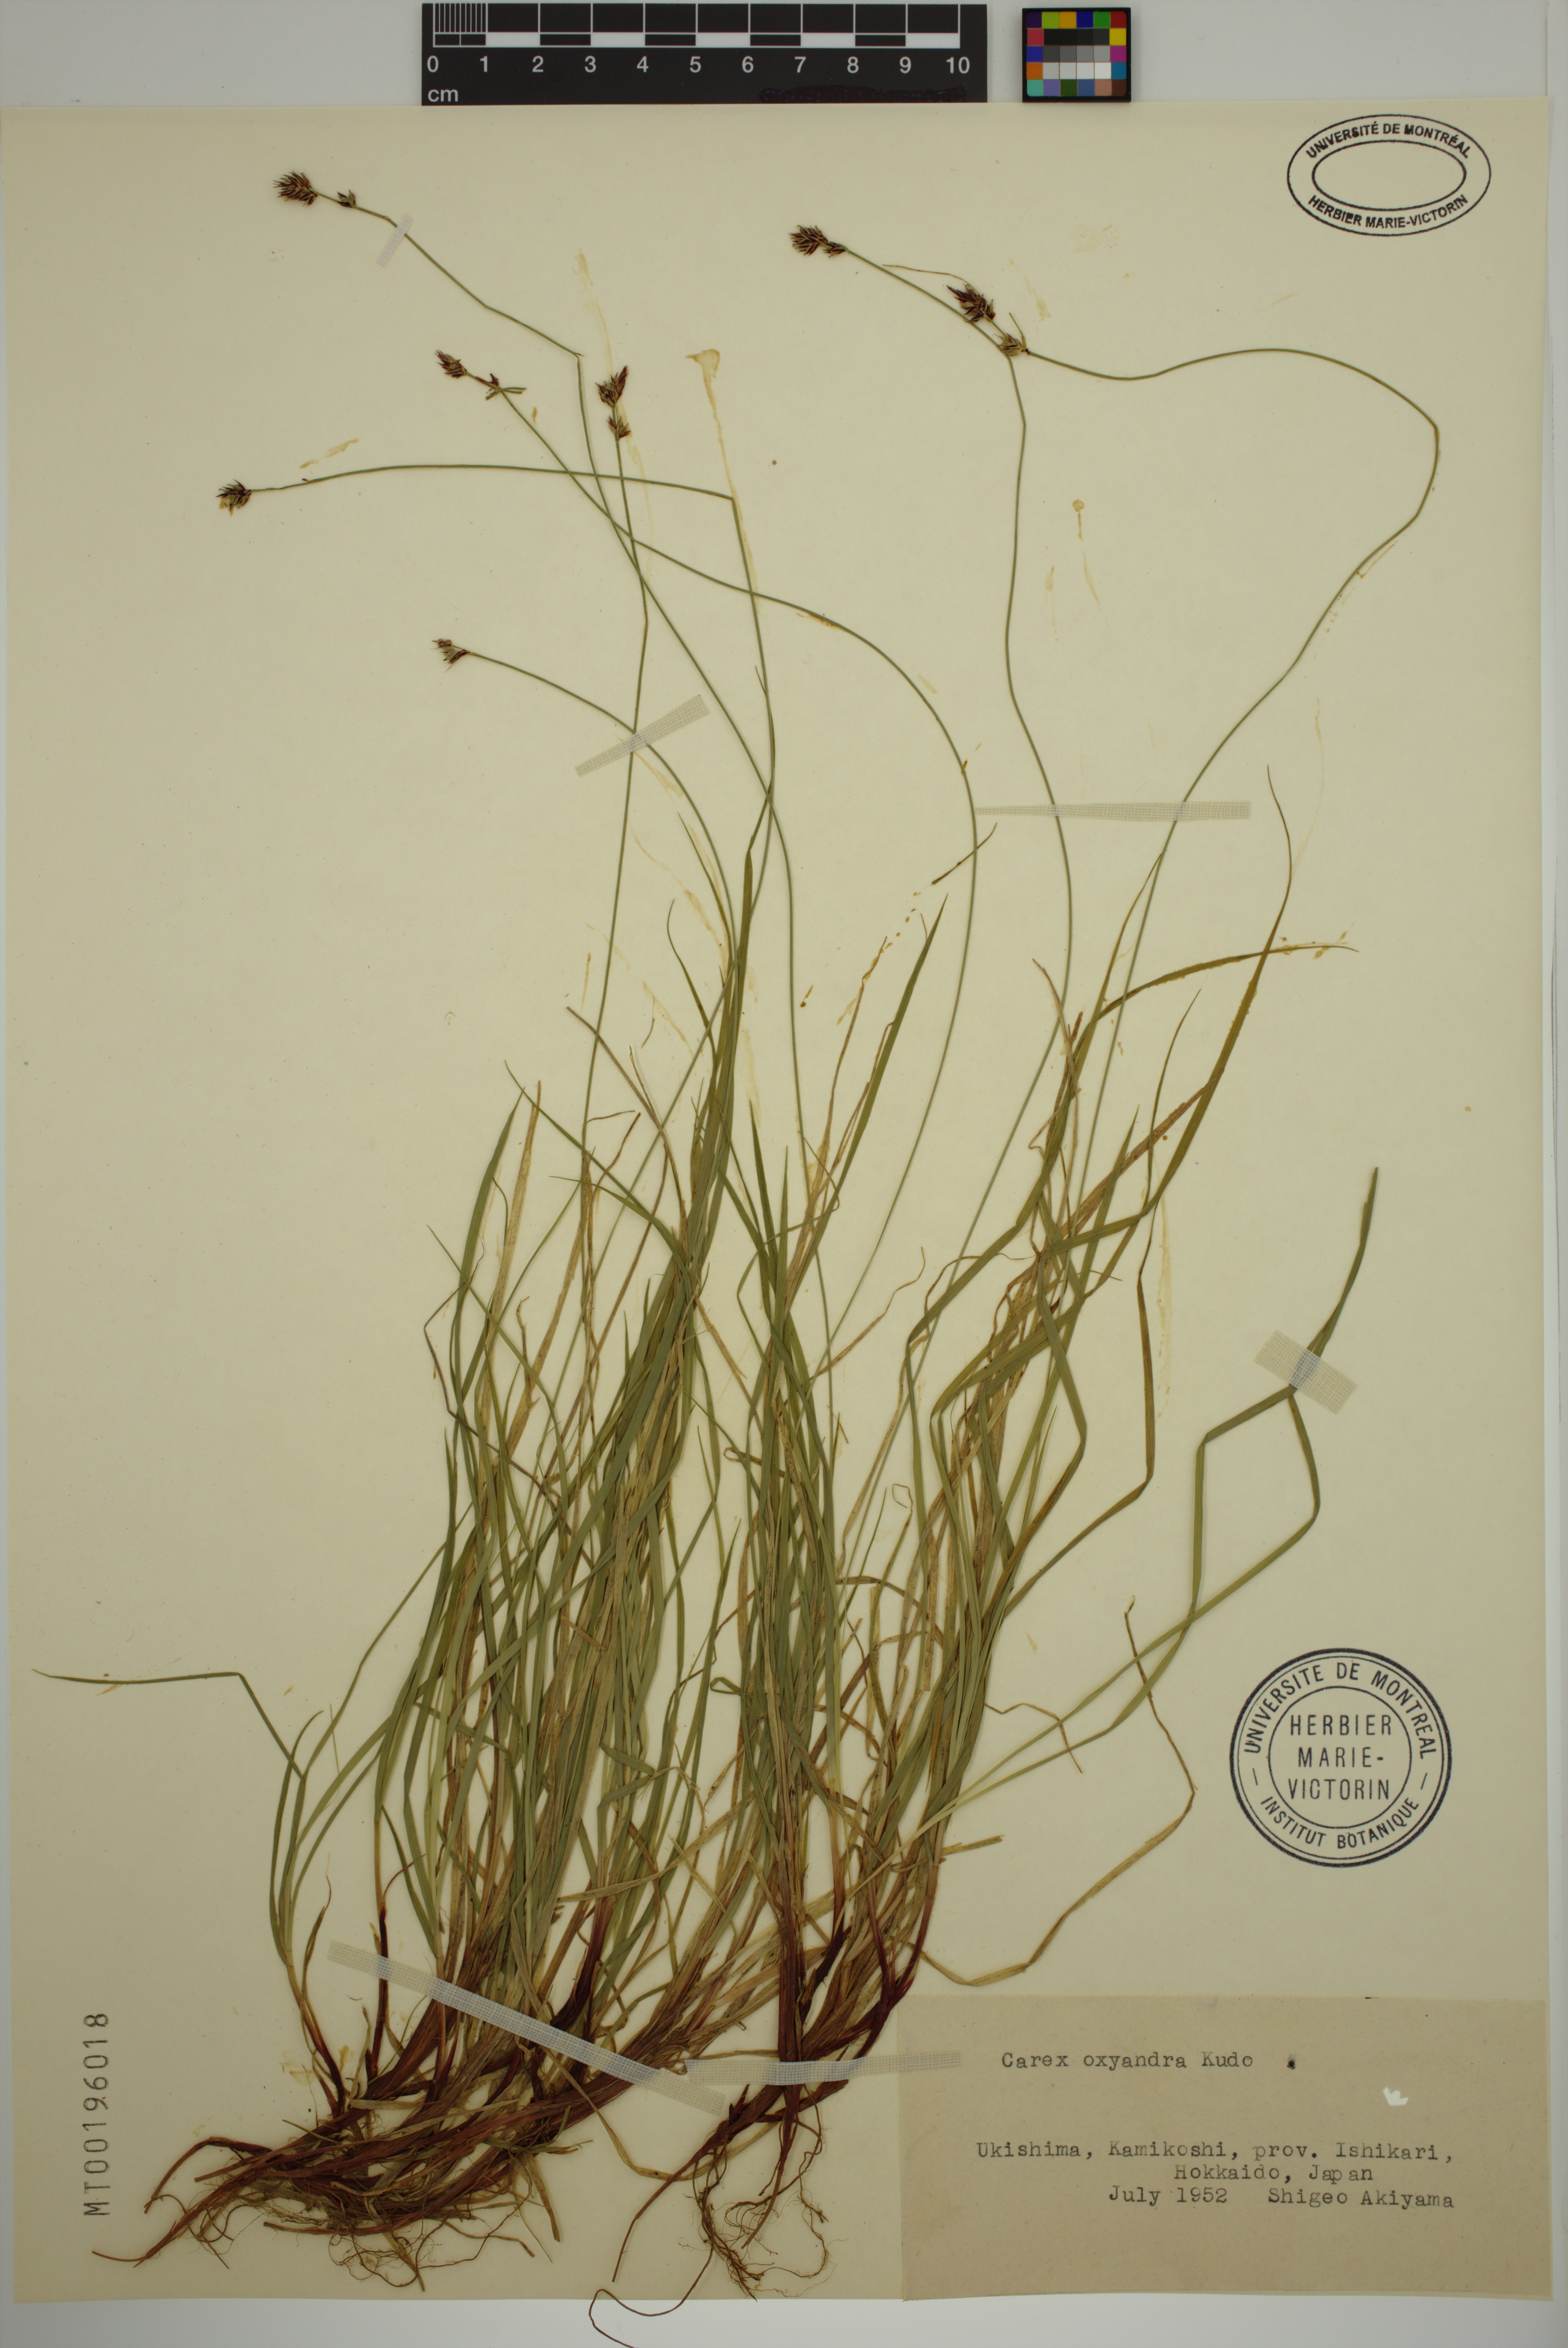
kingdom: Plantae
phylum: Tracheophyta
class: Liliopsida
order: Poales
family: Cyperaceae
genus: Carex
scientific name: Carex oxyandra
